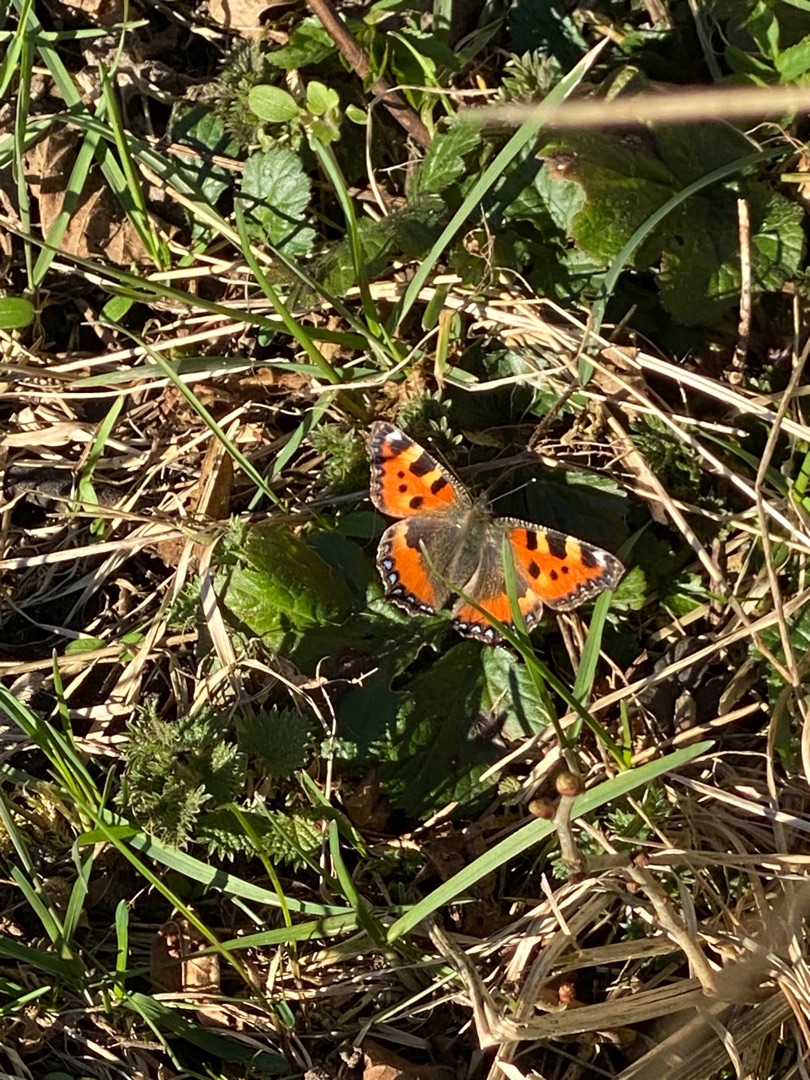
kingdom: Animalia
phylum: Arthropoda
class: Insecta
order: Lepidoptera
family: Nymphalidae
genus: Aglais
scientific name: Aglais urticae
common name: Nældens takvinge
